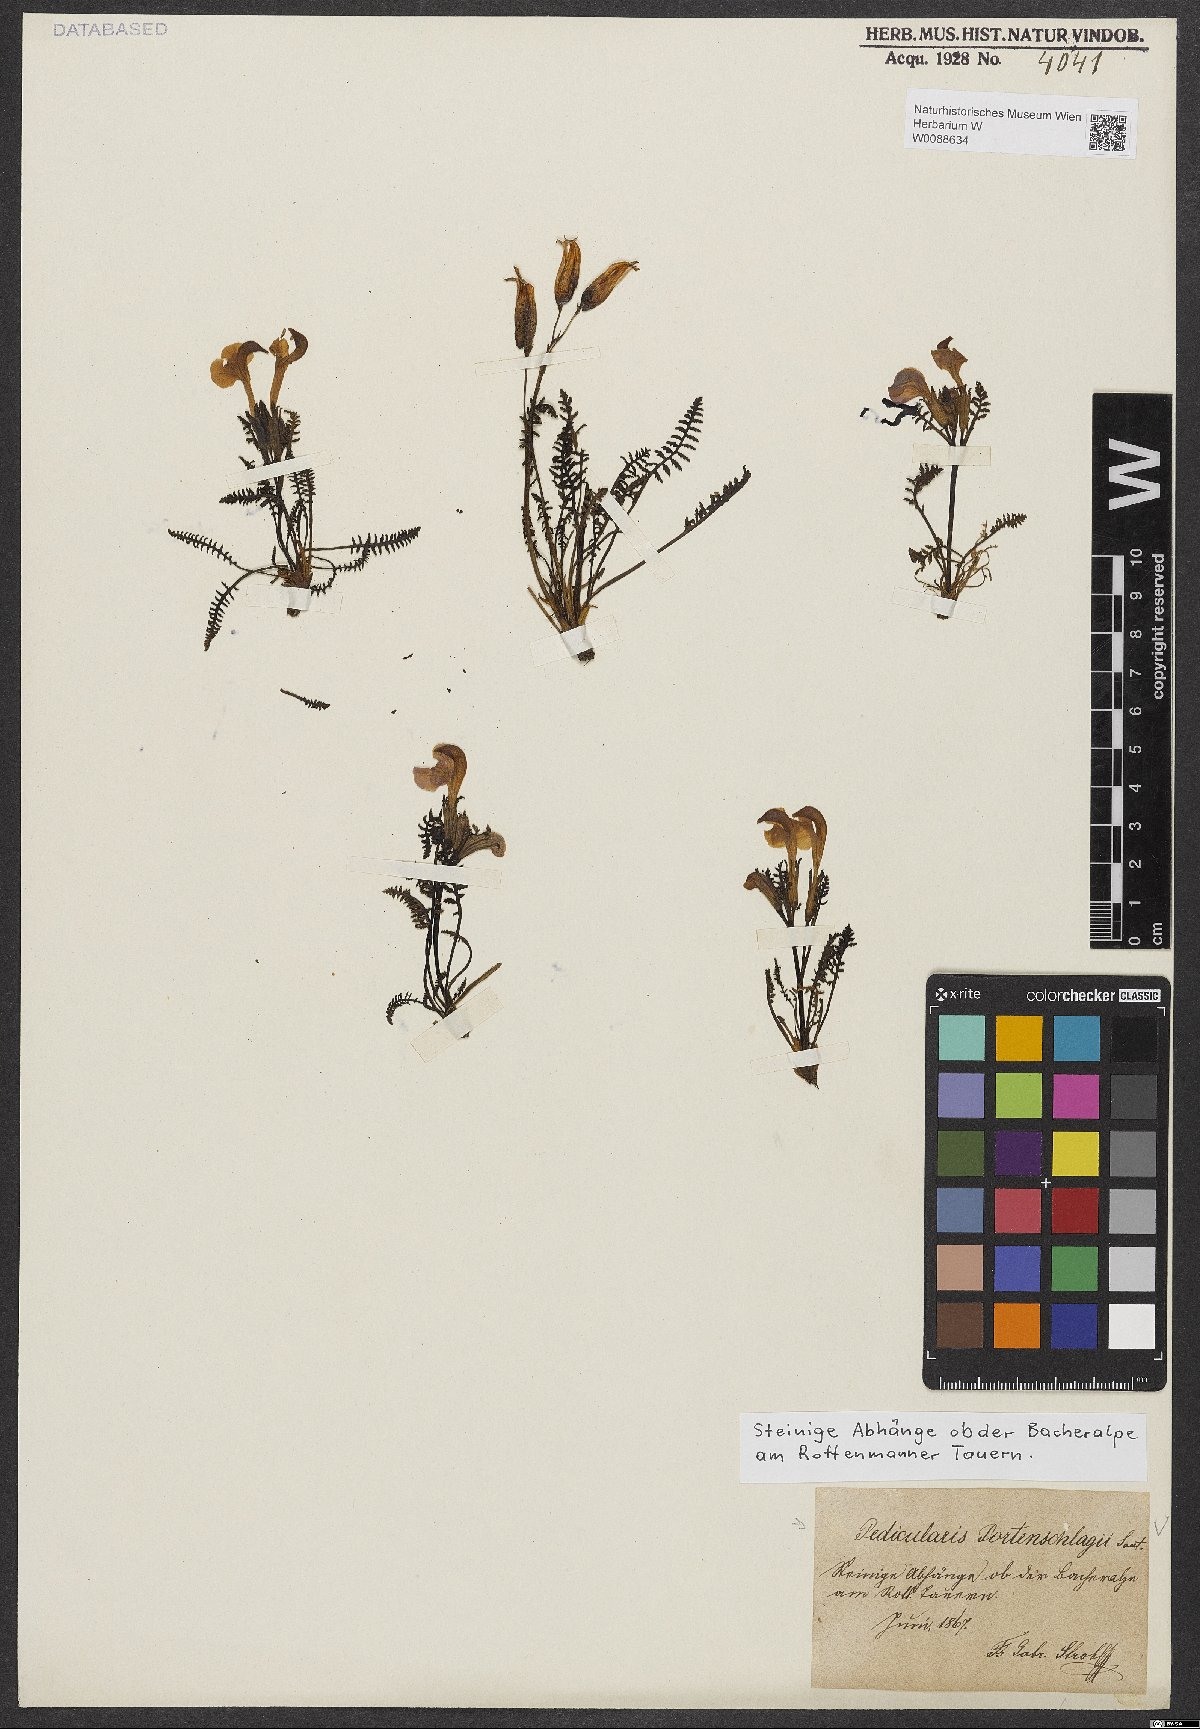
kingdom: Plantae
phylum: Tracheophyta
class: Magnoliopsida
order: Lamiales
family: Orobanchaceae
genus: Pedicularis
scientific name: Pedicularis portenschlagii
